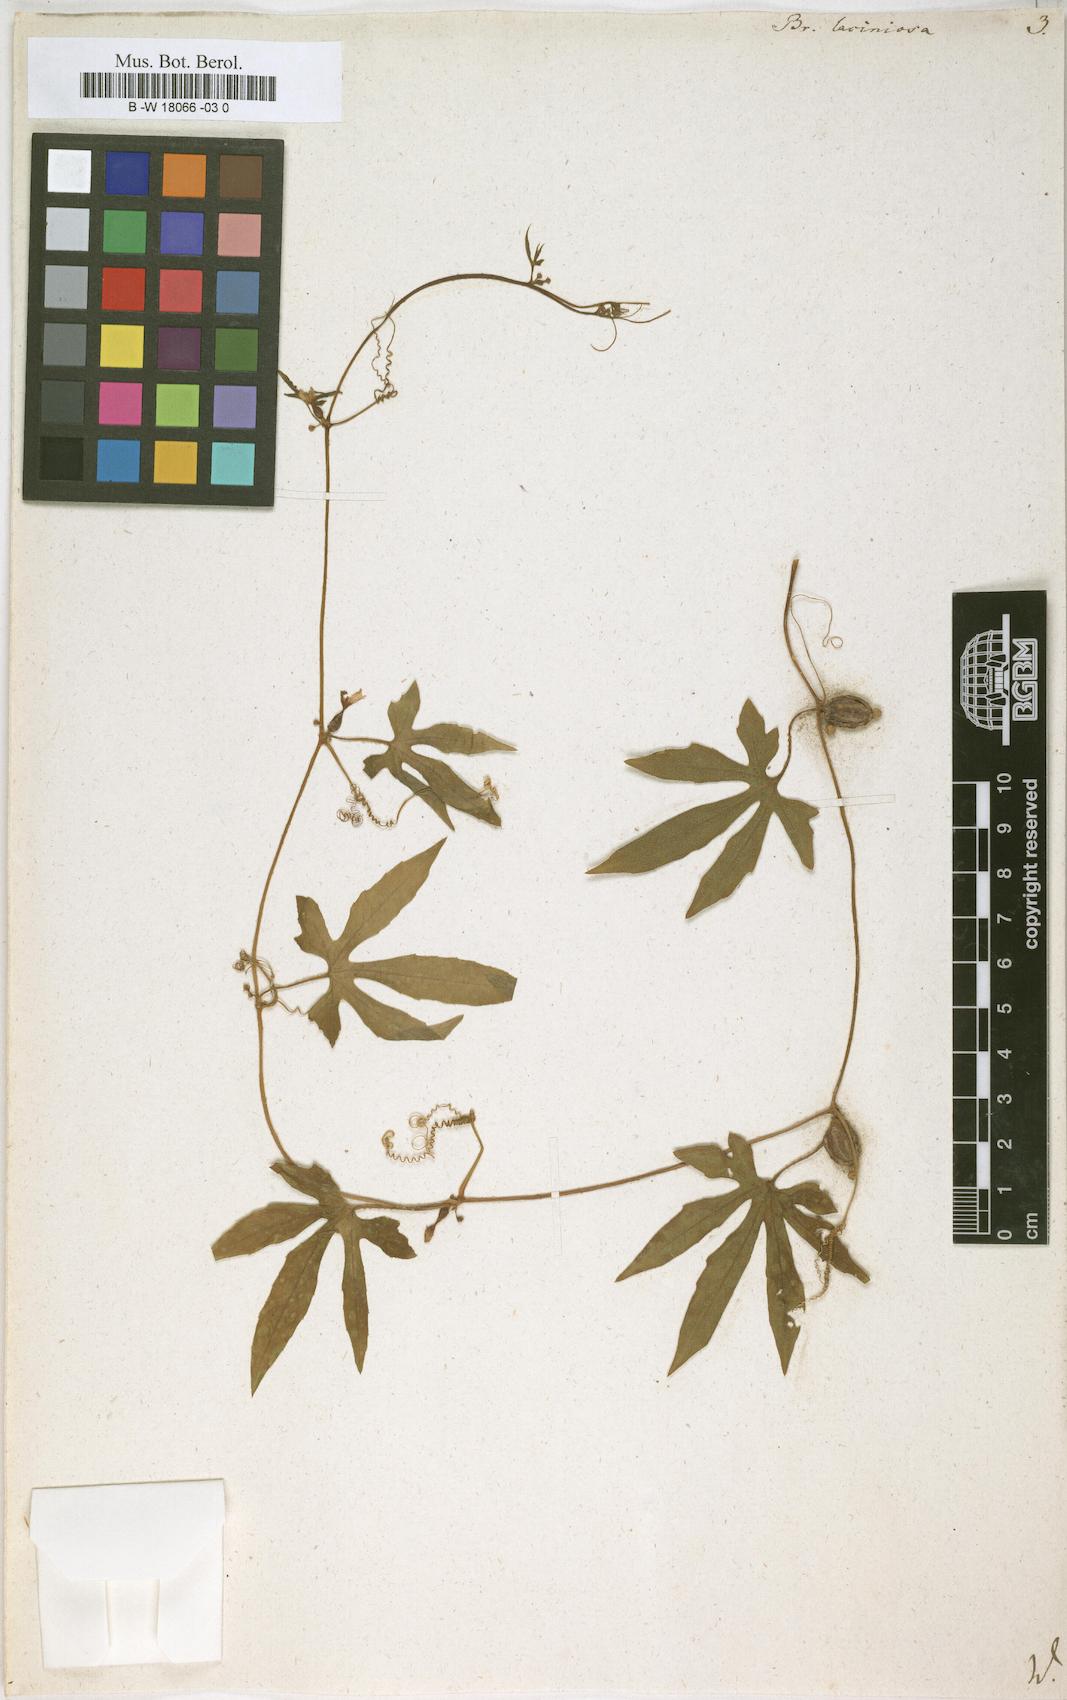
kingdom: Plantae
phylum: Tracheophyta
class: Magnoliopsida
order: Cucurbitales
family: Cucurbitaceae
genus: Diplocyclos
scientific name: Diplocyclos palmatus
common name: Striped-cucumber
